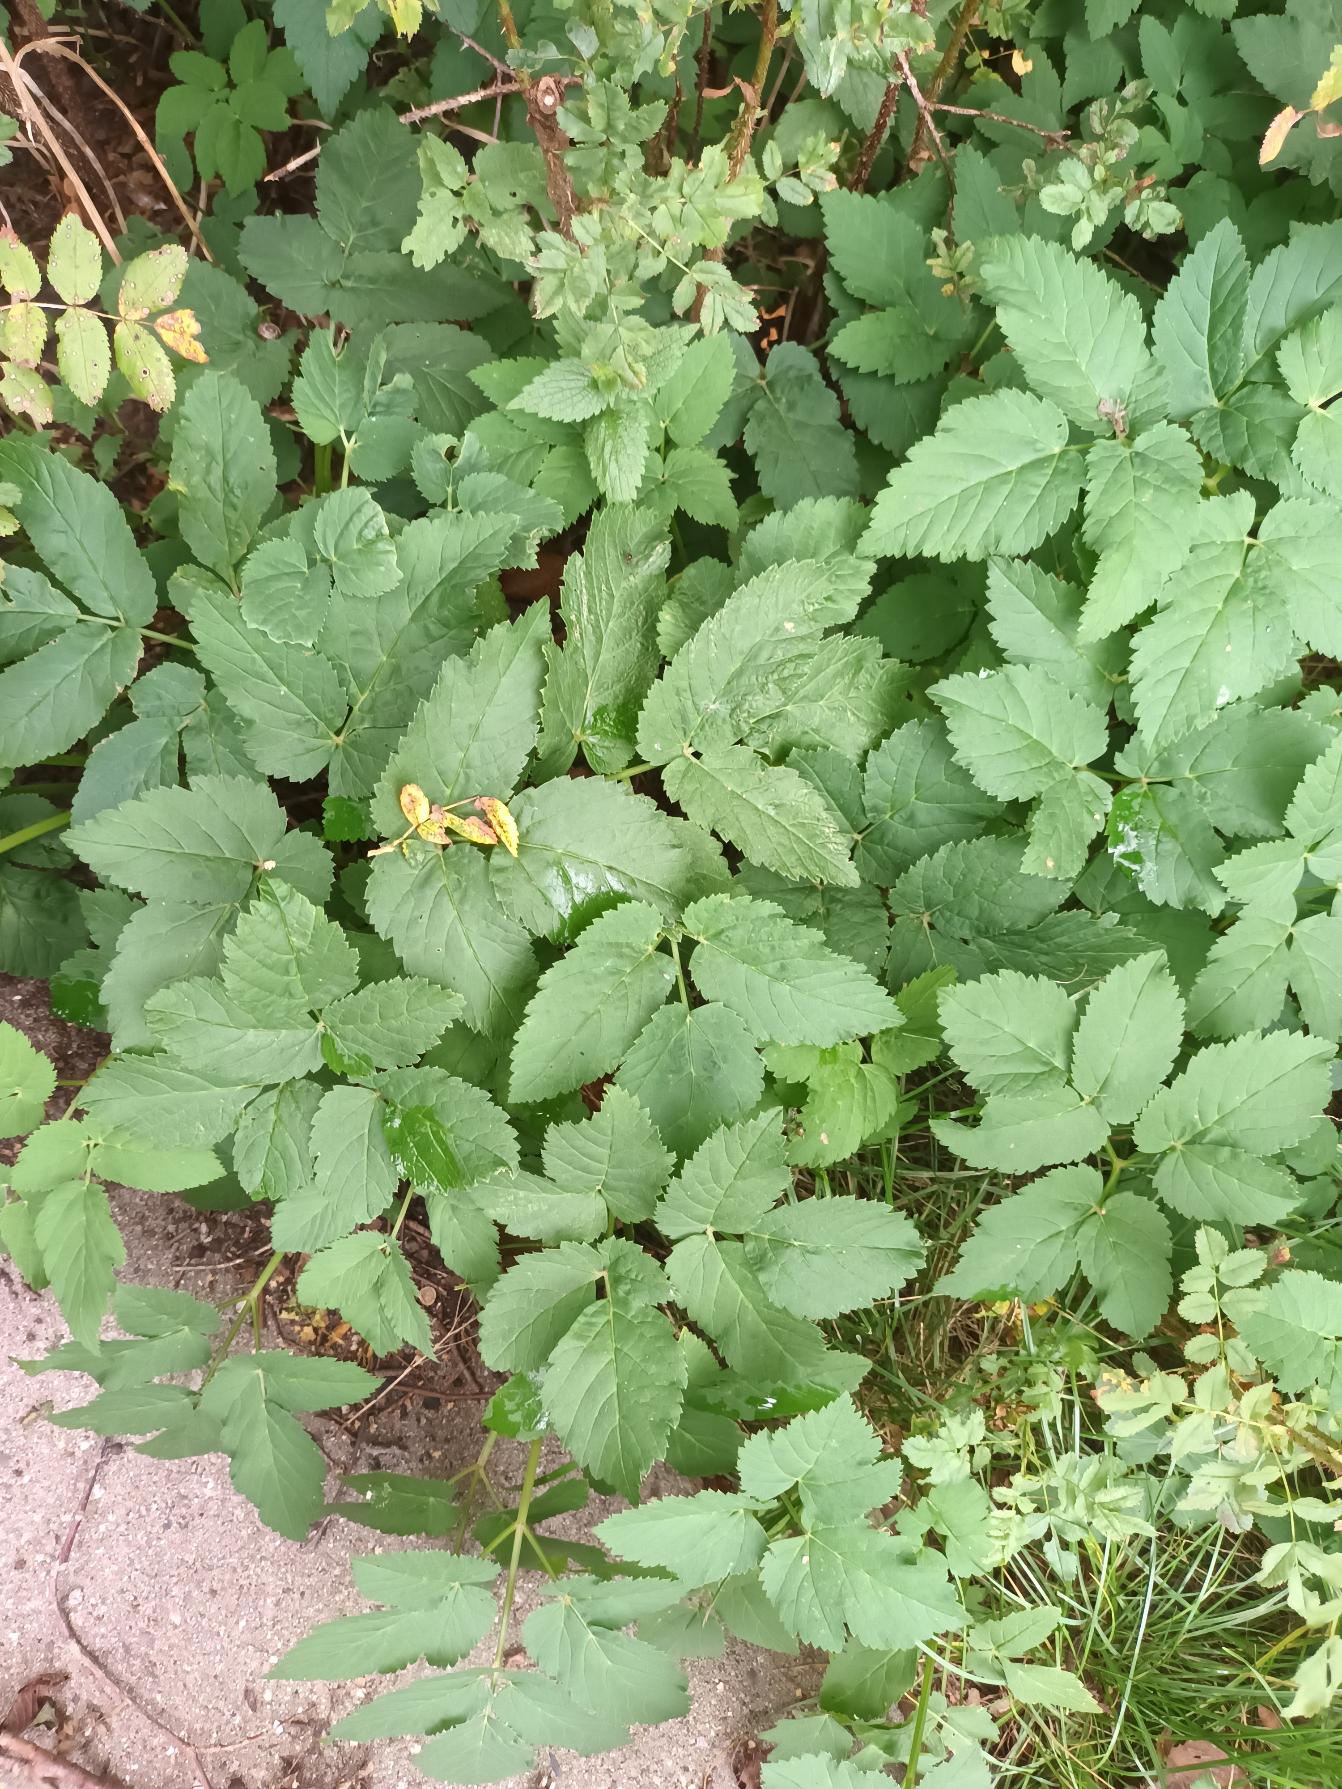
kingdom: Plantae
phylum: Tracheophyta
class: Magnoliopsida
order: Apiales
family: Apiaceae
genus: Aegopodium
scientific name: Aegopodium podagraria
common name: Skvalderkål
